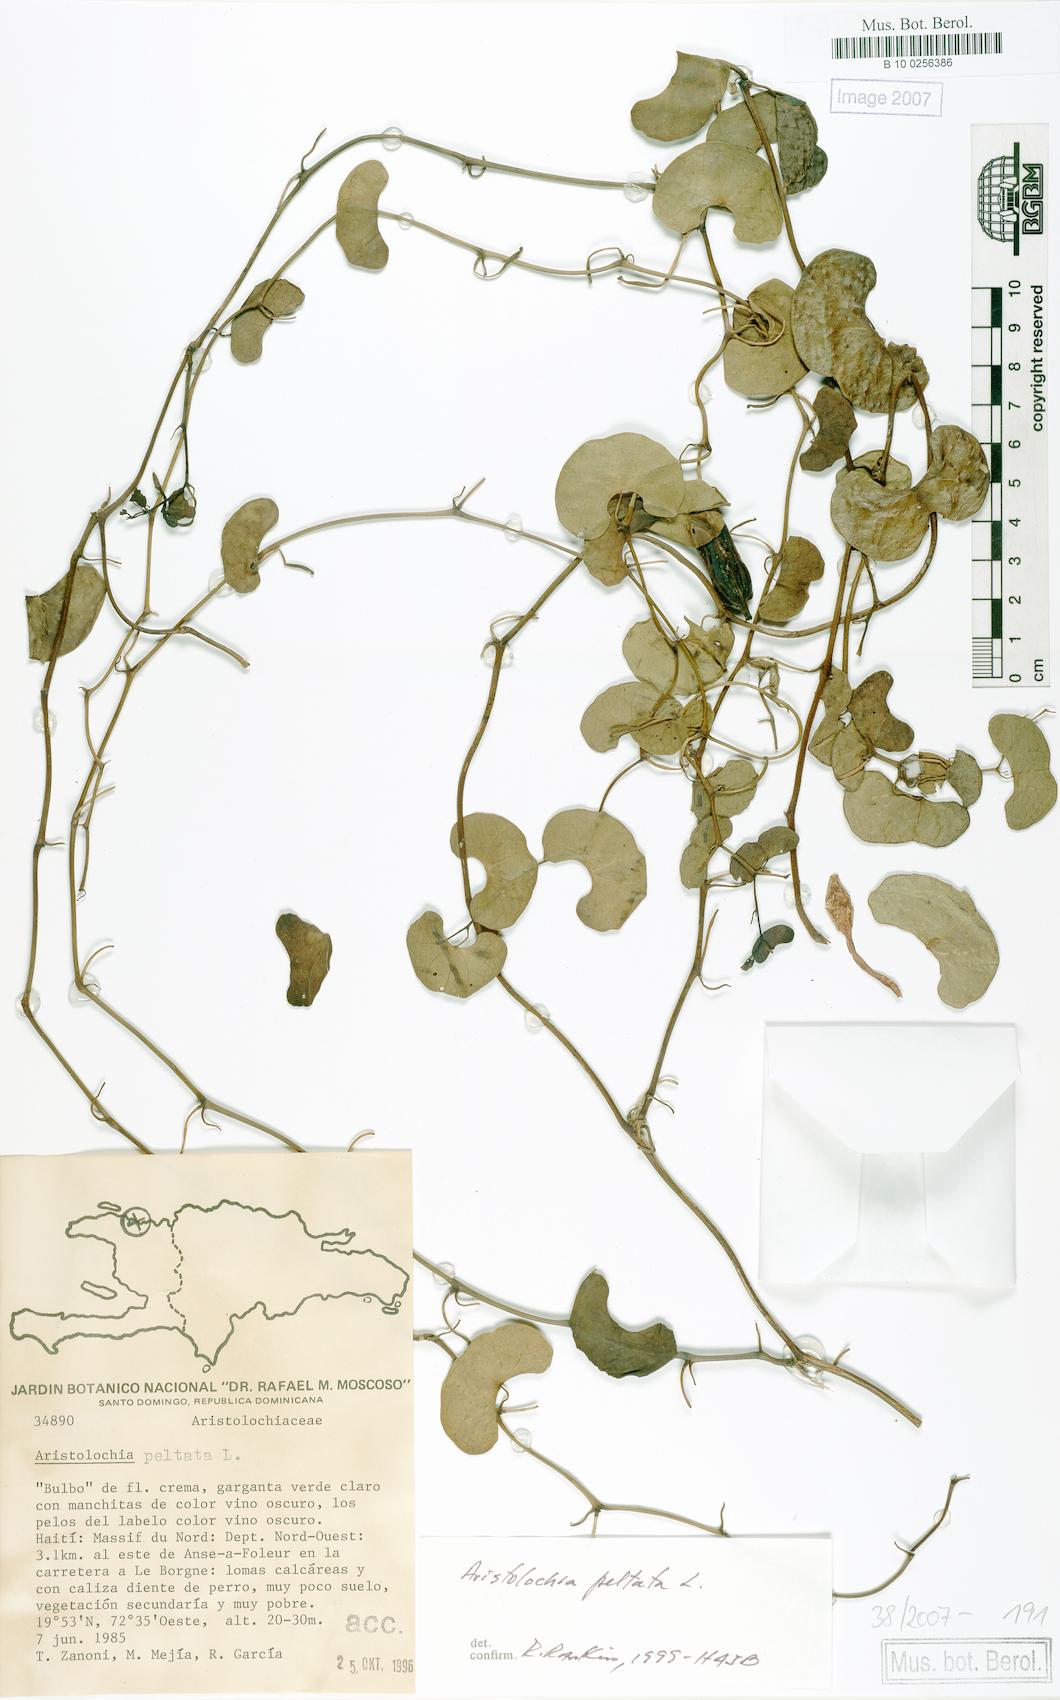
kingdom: Plantae
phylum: Tracheophyta
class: Magnoliopsida
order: Piperales
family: Aristolochiaceae
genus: Aristolochia
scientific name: Aristolochia peltata
